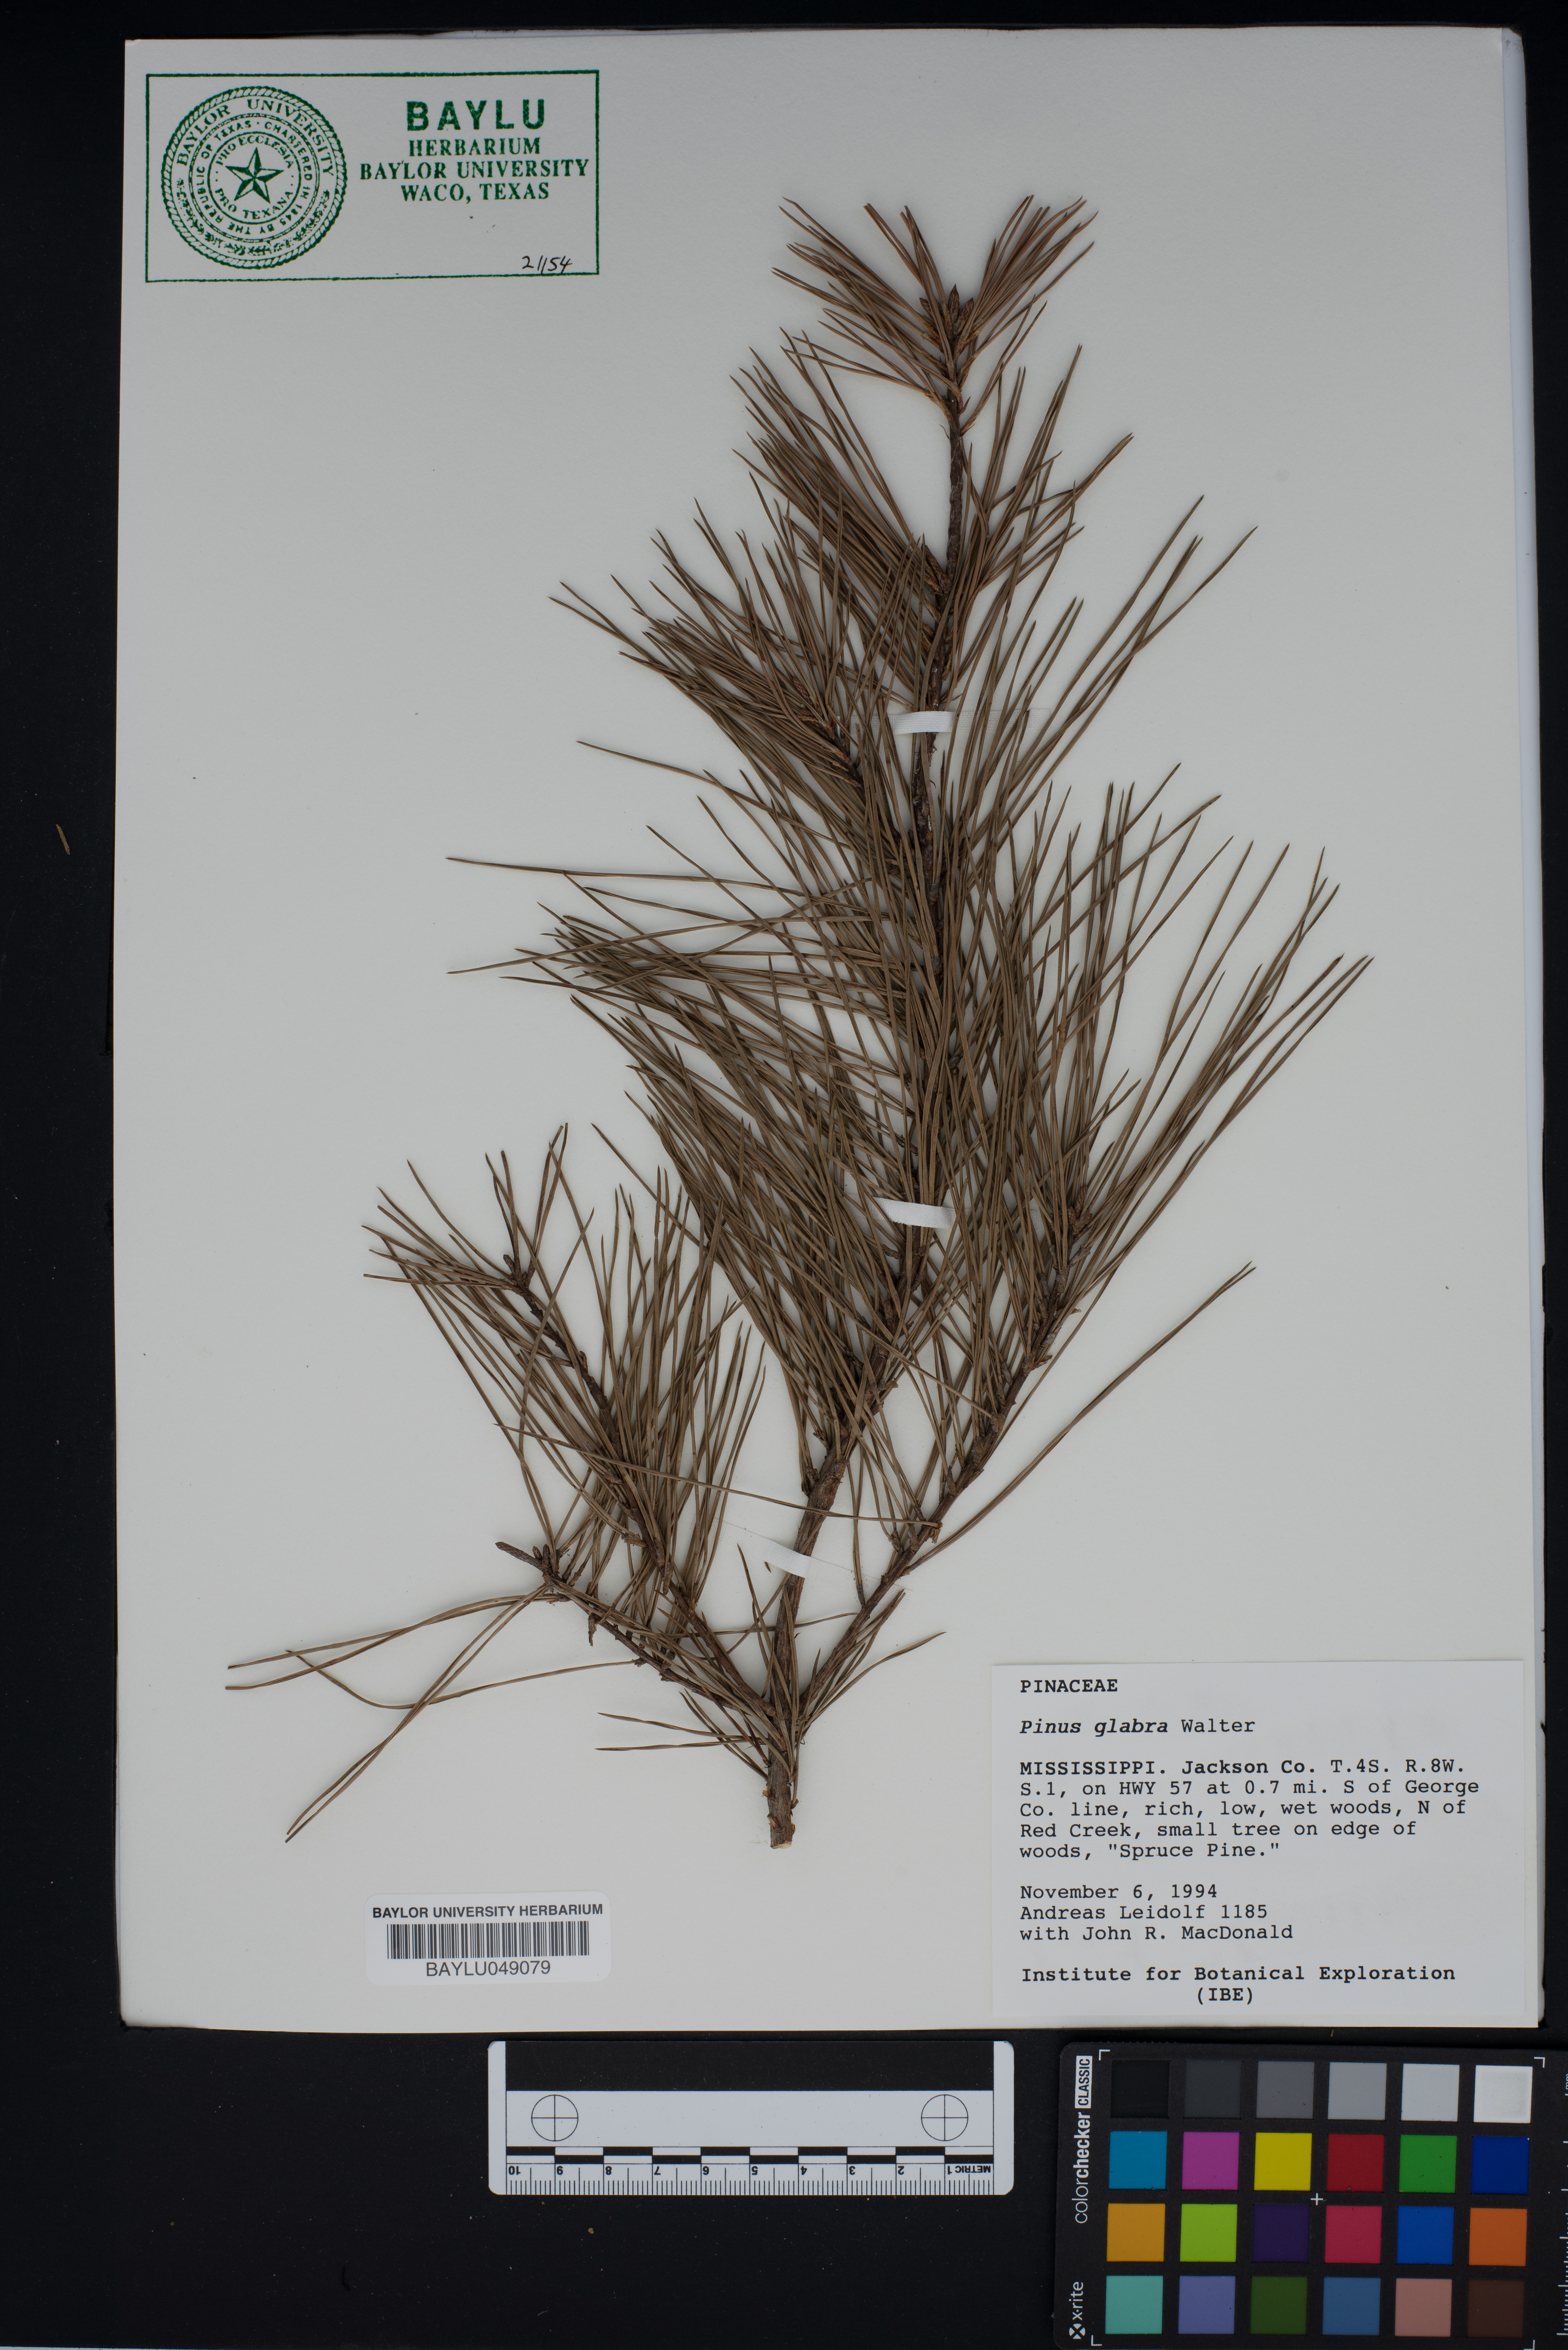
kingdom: Plantae
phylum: Tracheophyta
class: Pinopsida
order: Pinales
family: Pinaceae
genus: Pinus
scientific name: Pinus glabra
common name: Spruce pine
